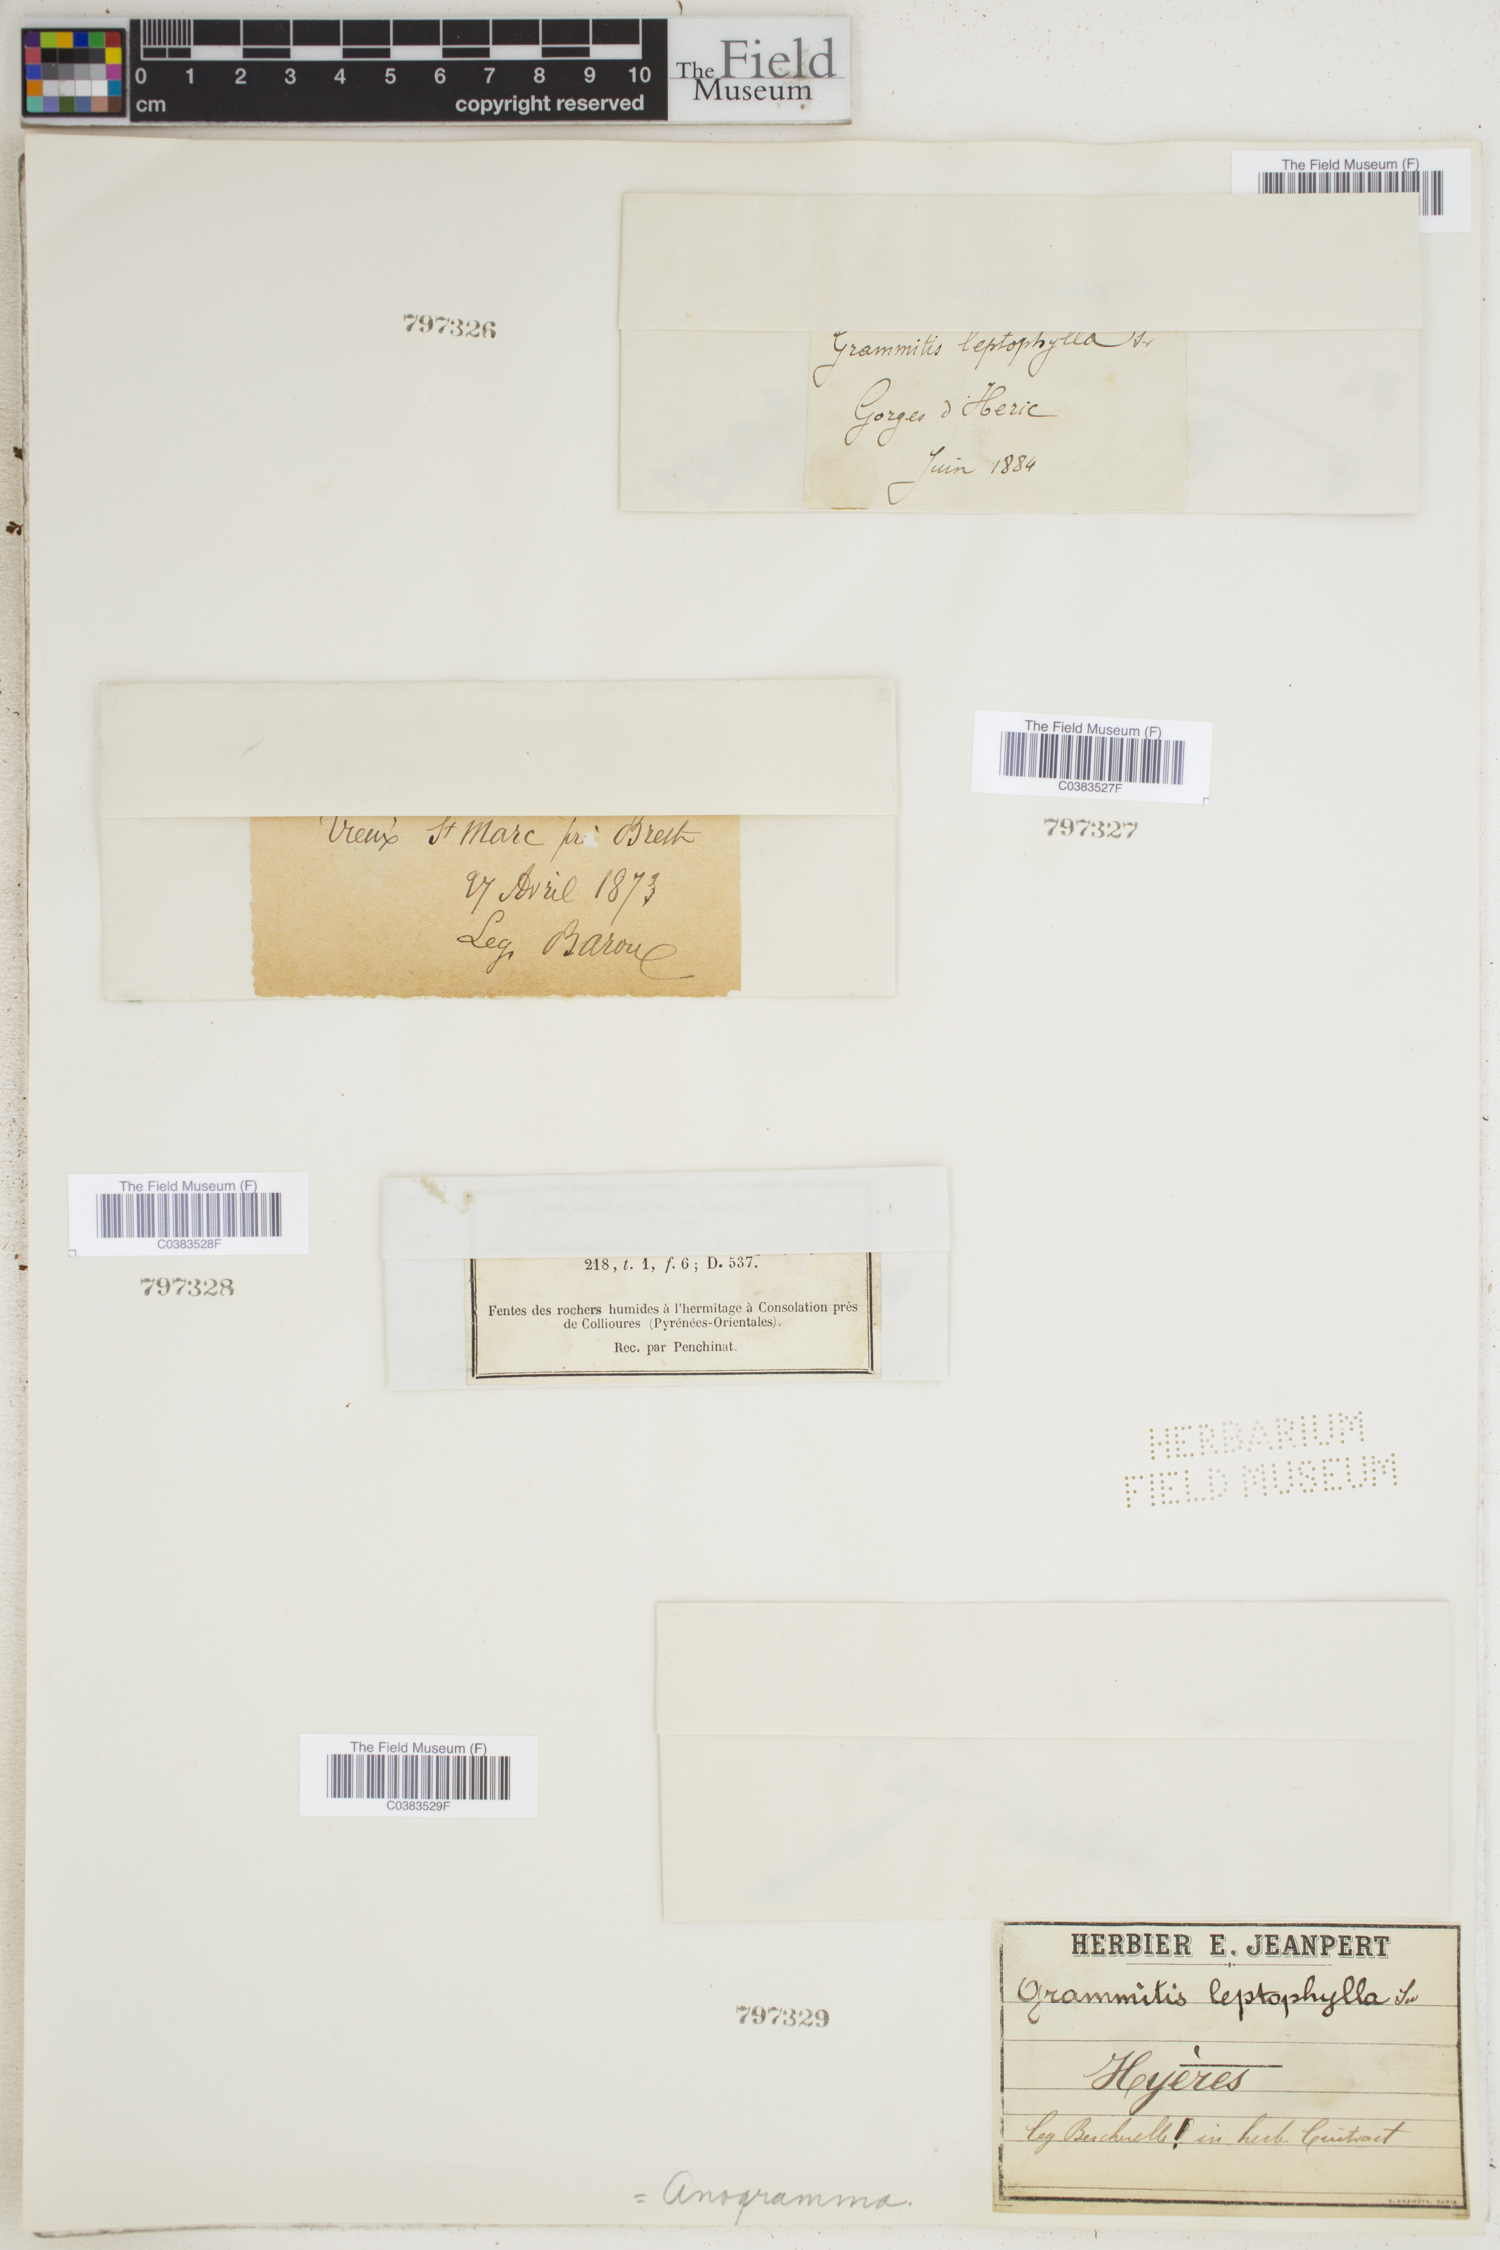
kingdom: Plantae
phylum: Tracheophyta
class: Polypodiopsida
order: Polypodiales
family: Pteridaceae
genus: Anogramma
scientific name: Anogramma leptophylla
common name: Jersey fern
